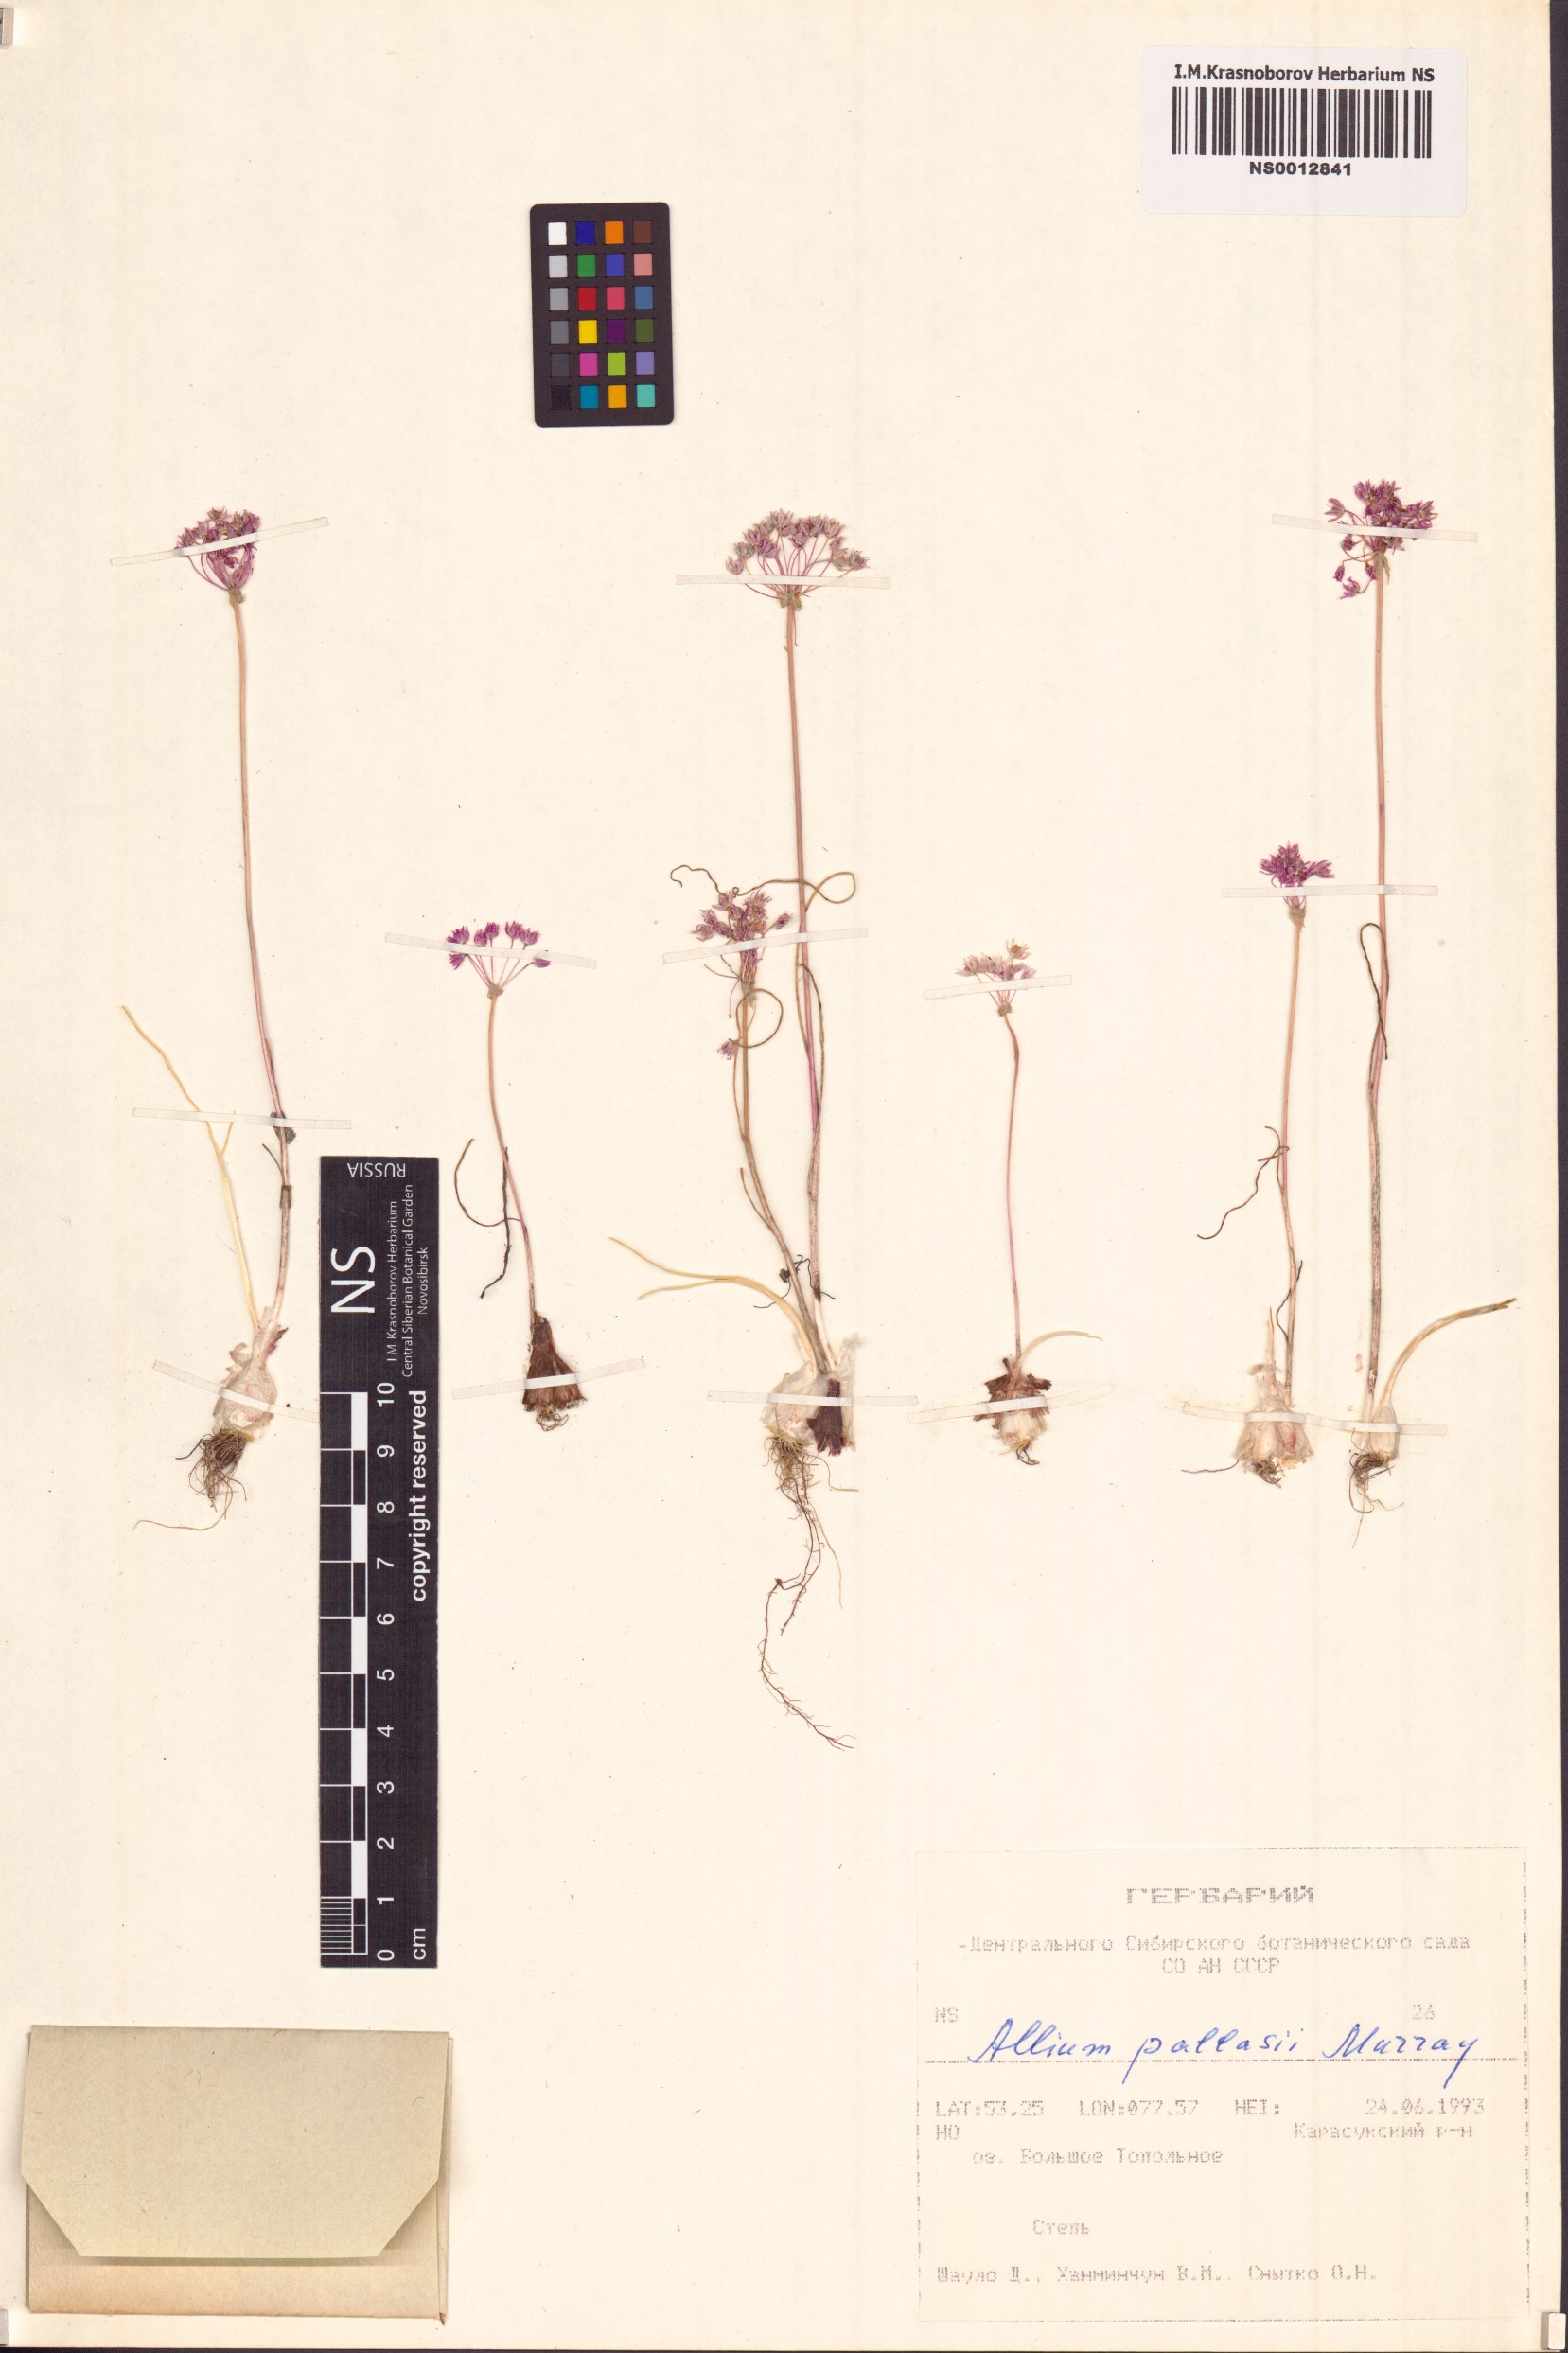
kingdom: Plantae
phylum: Tracheophyta
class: Liliopsida
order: Asparagales
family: Amaryllidaceae
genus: Allium
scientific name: Allium pallasii
